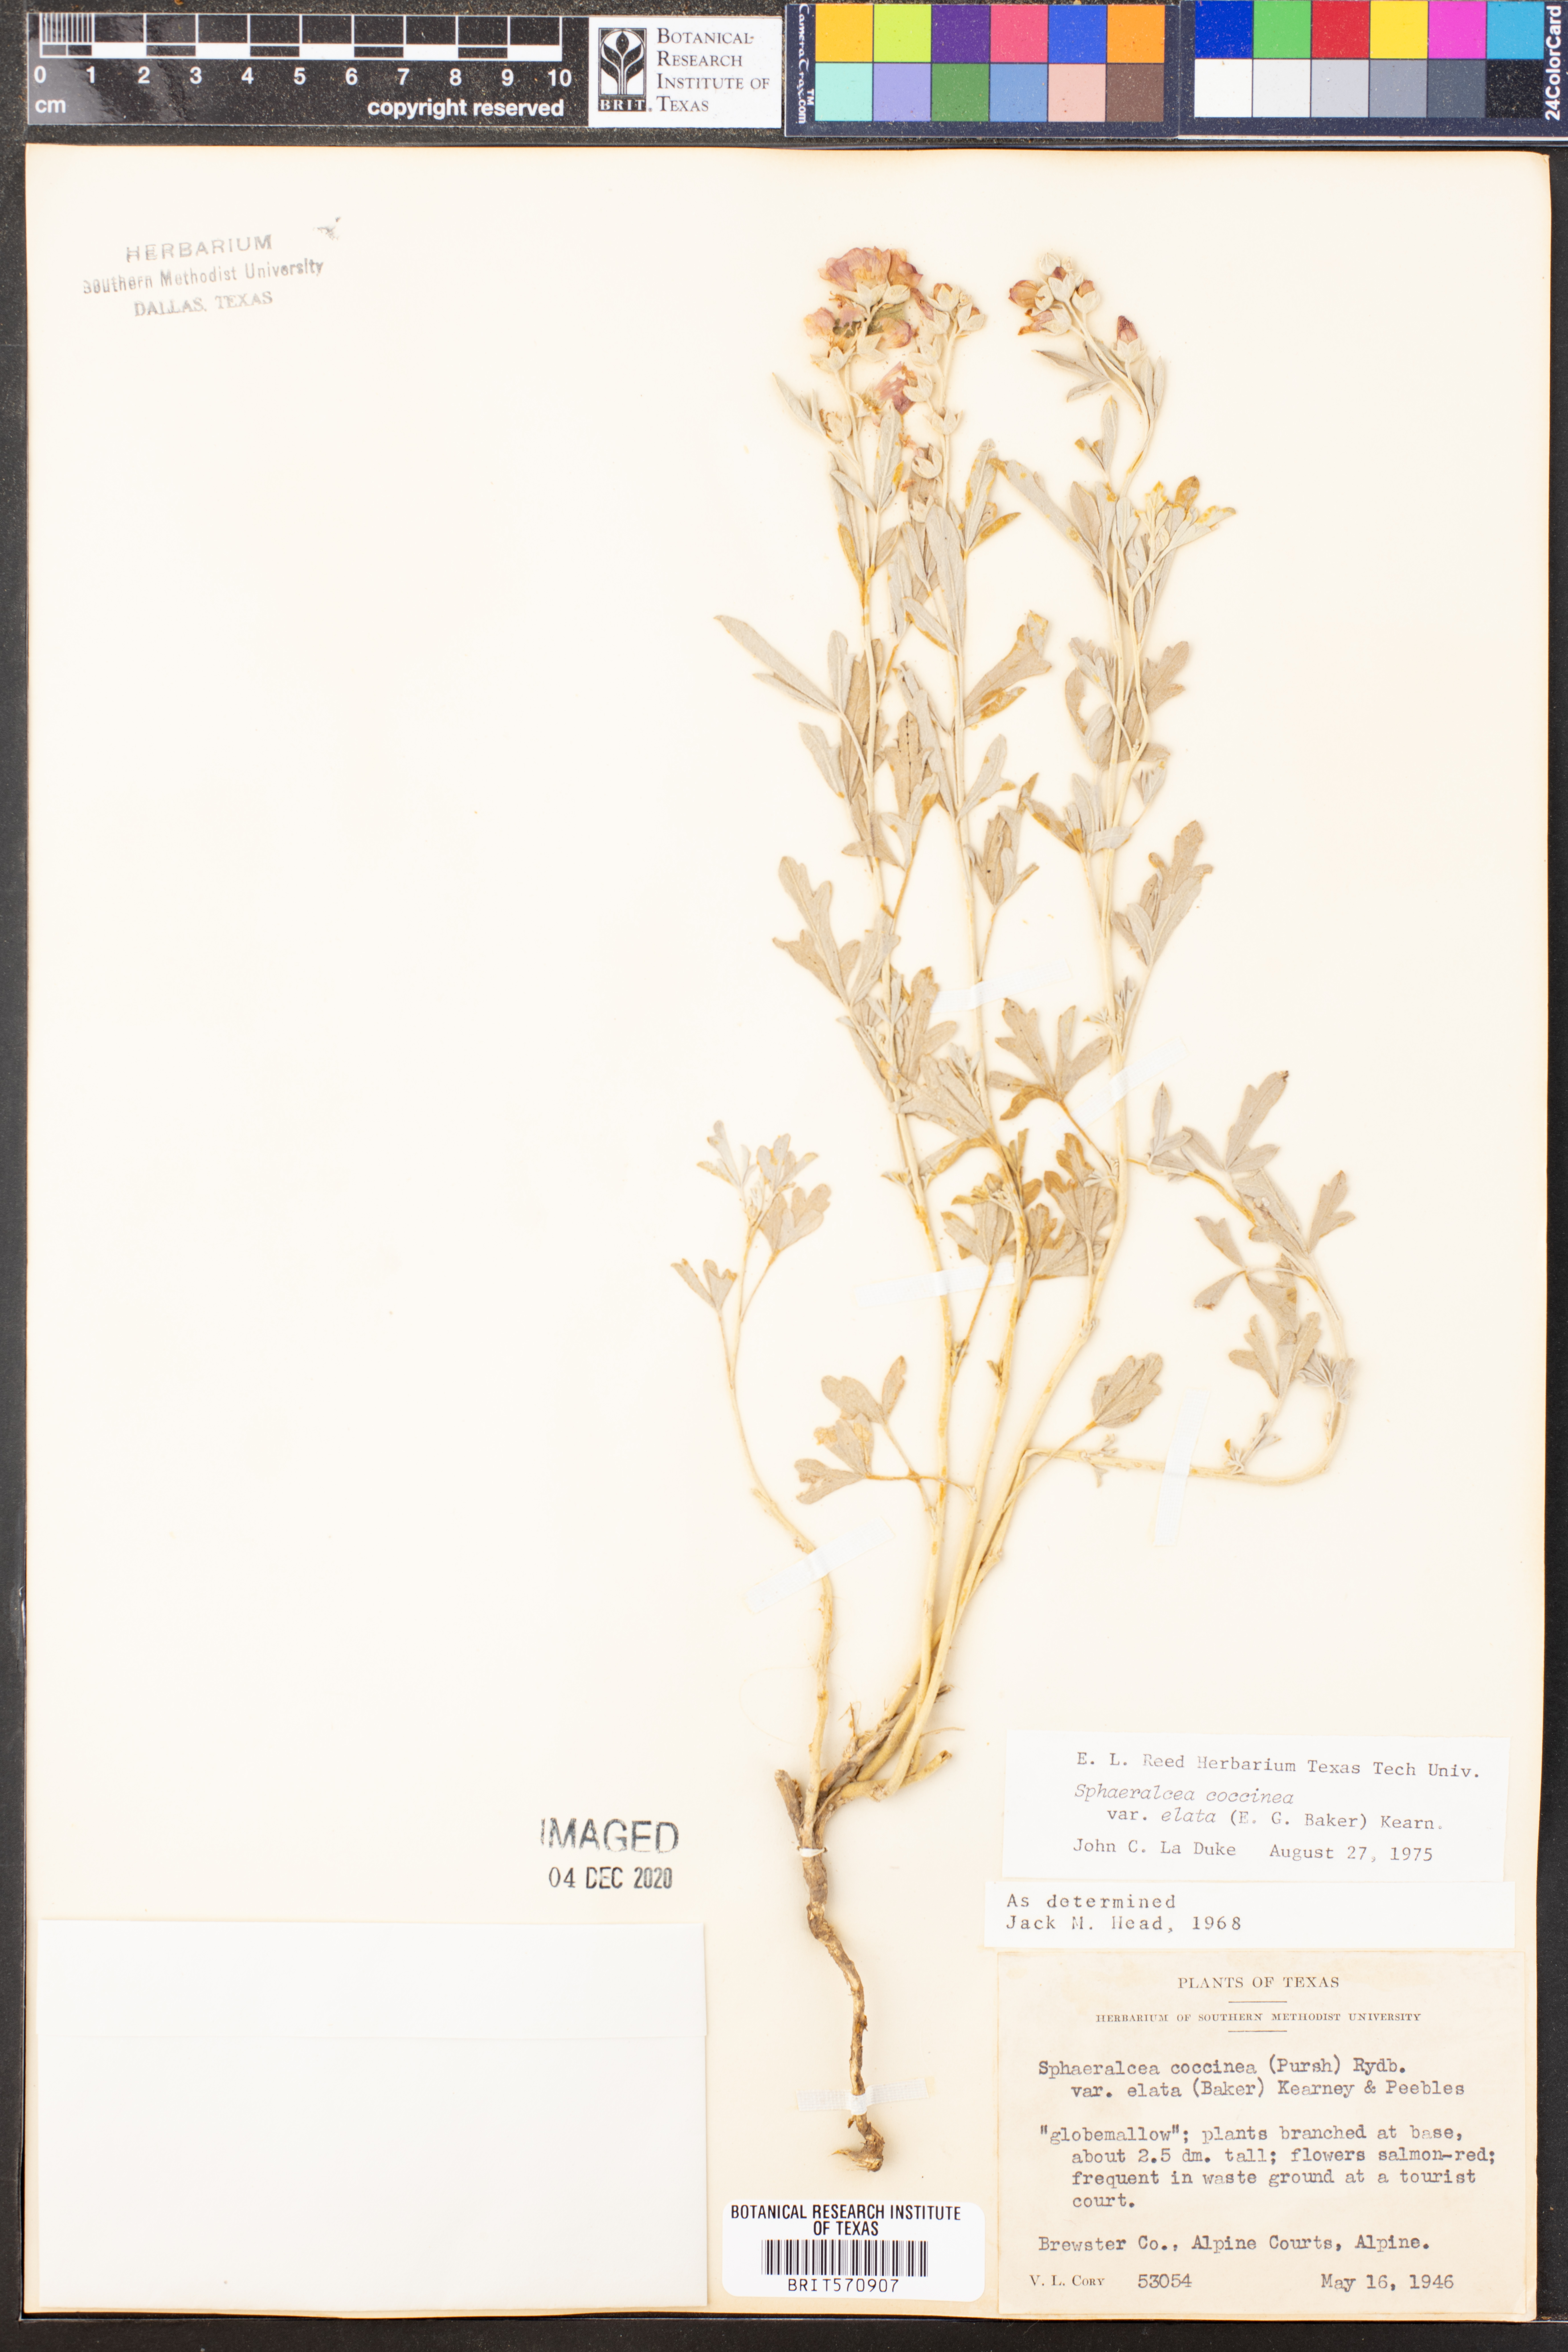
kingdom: Plantae
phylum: Tracheophyta
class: Magnoliopsida
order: Malvales
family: Malvaceae
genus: Sphaeralcea
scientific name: Sphaeralcea coccinea
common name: Moss-rose
